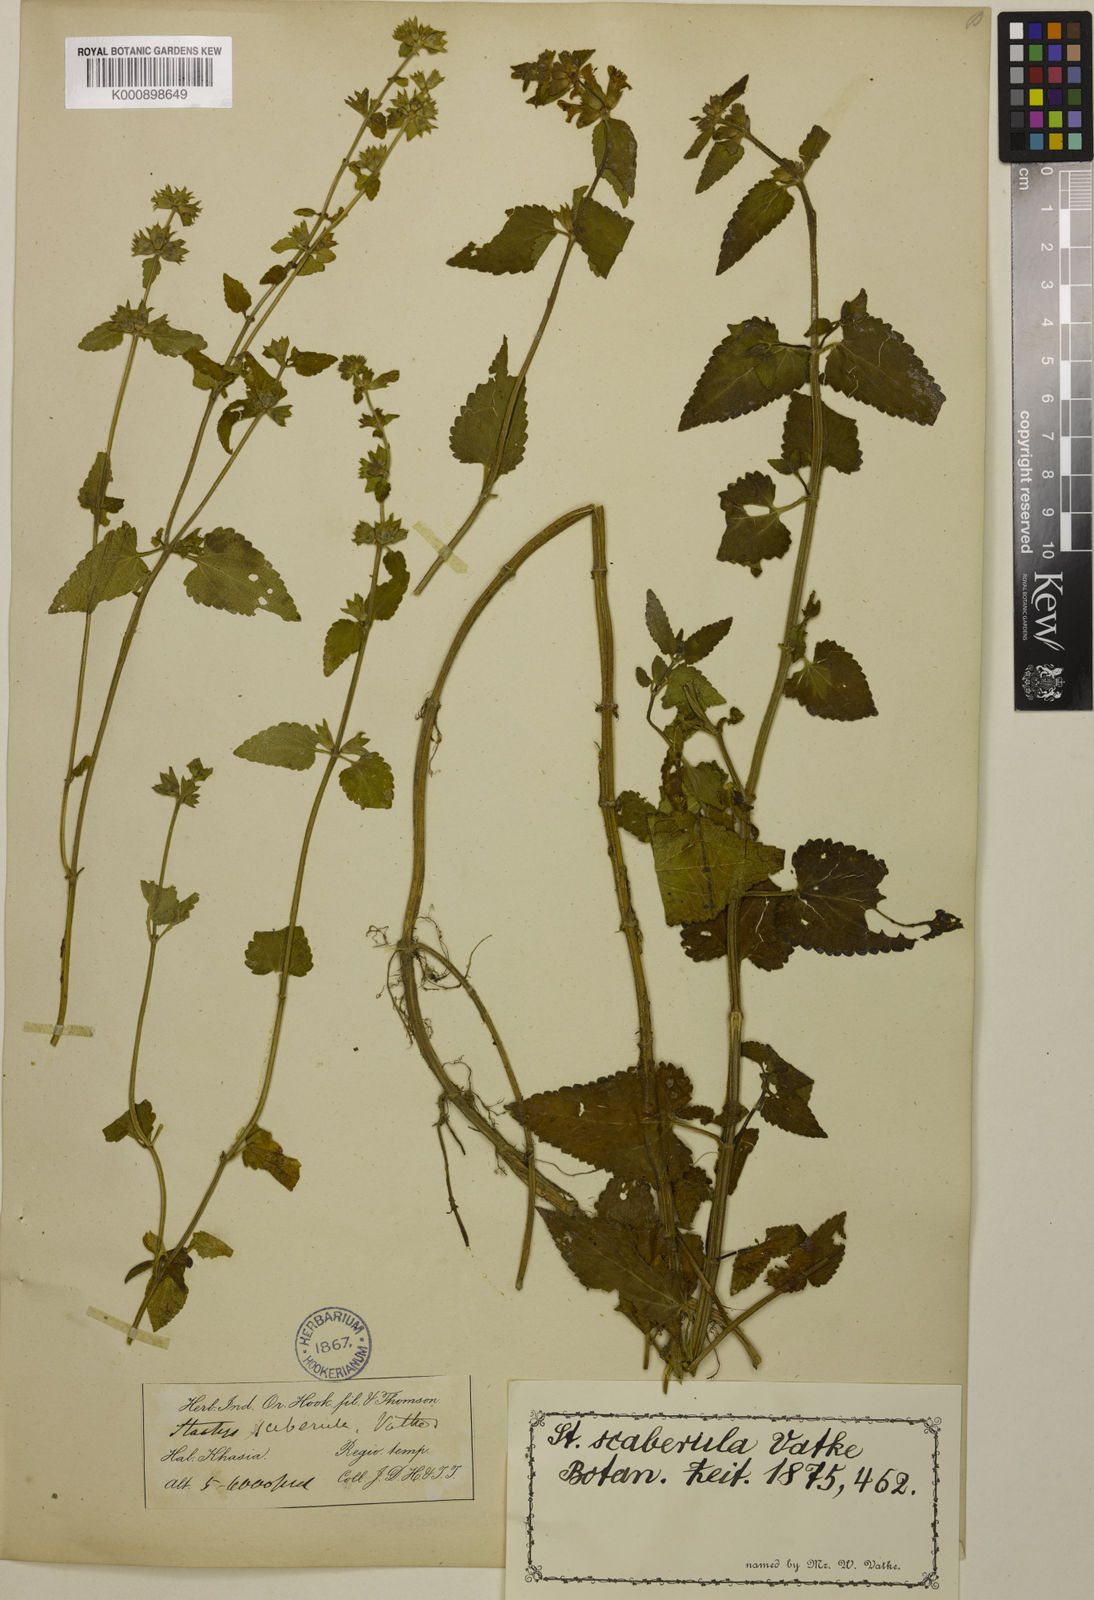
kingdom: Plantae
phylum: Tracheophyta
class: Magnoliopsida
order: Lamiales
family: Lamiaceae
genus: Stachys
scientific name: Stachys scaberula
